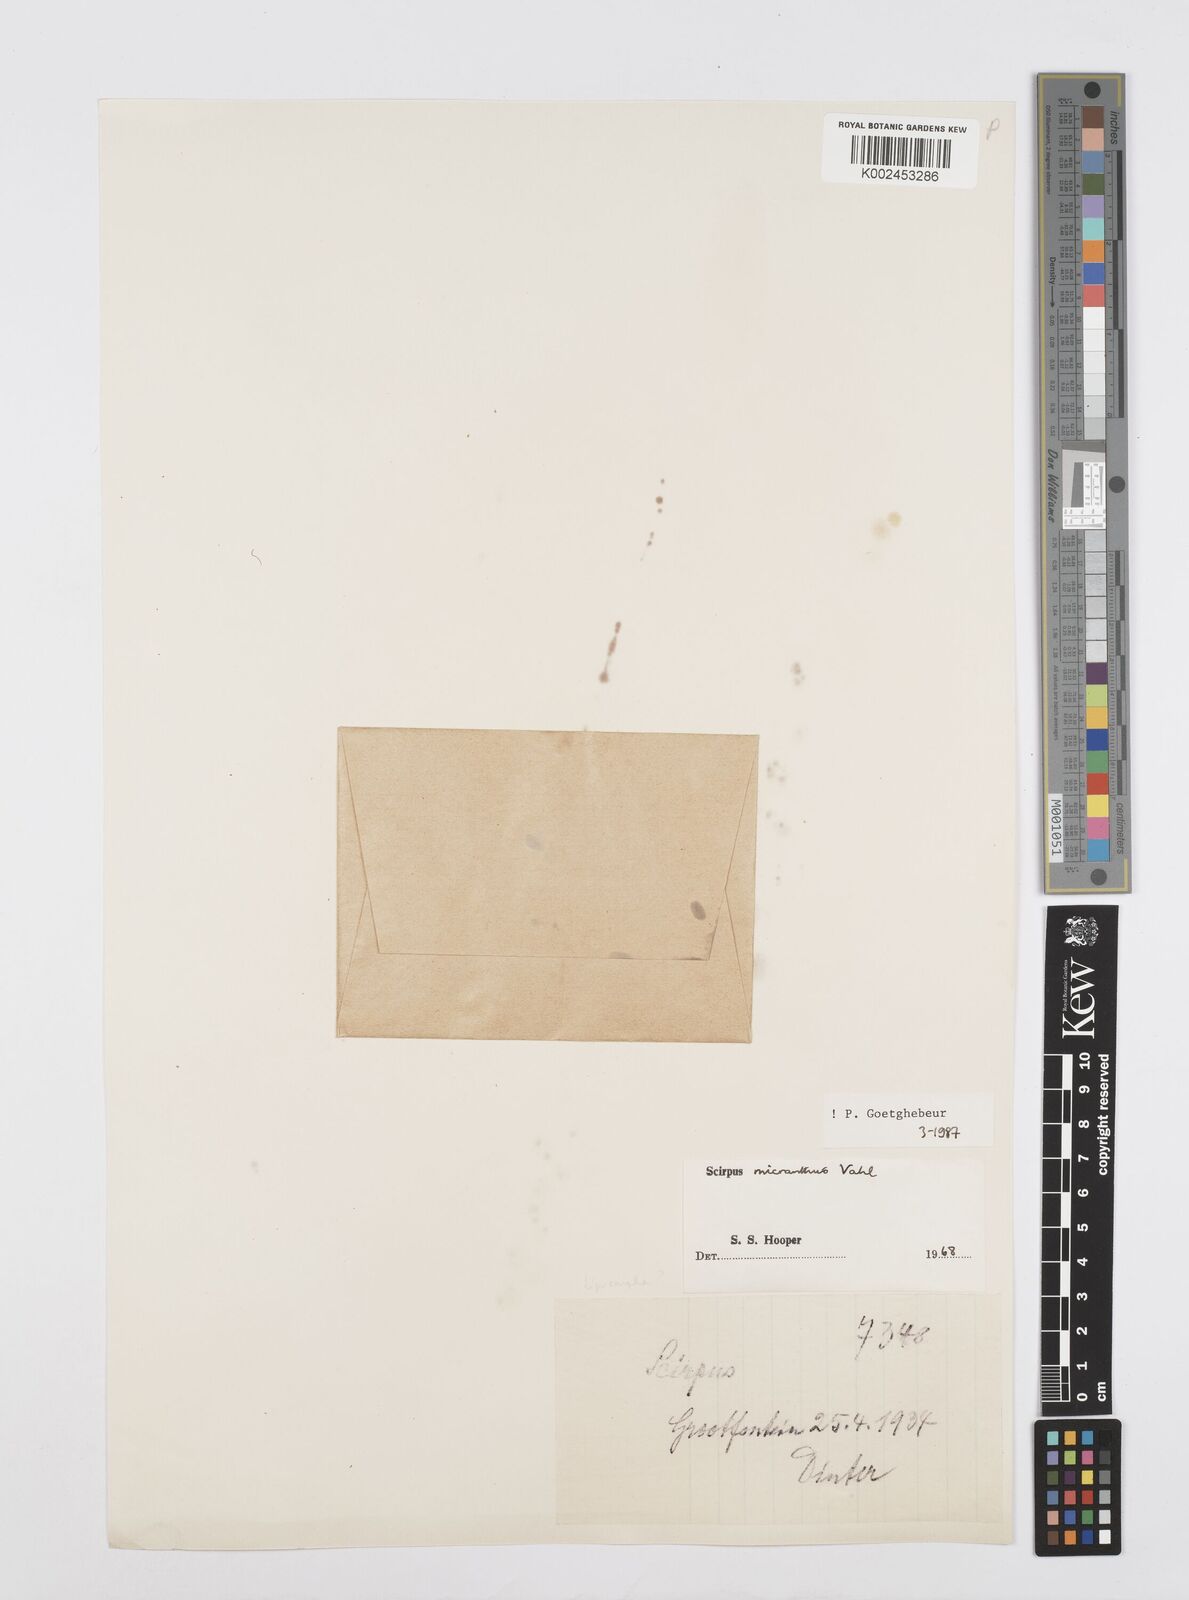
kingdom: Plantae
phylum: Tracheophyta
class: Liliopsida
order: Poales
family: Cyperaceae
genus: Cyperus
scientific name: Cyperus dentatus
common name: Dentate umbrella sedge
